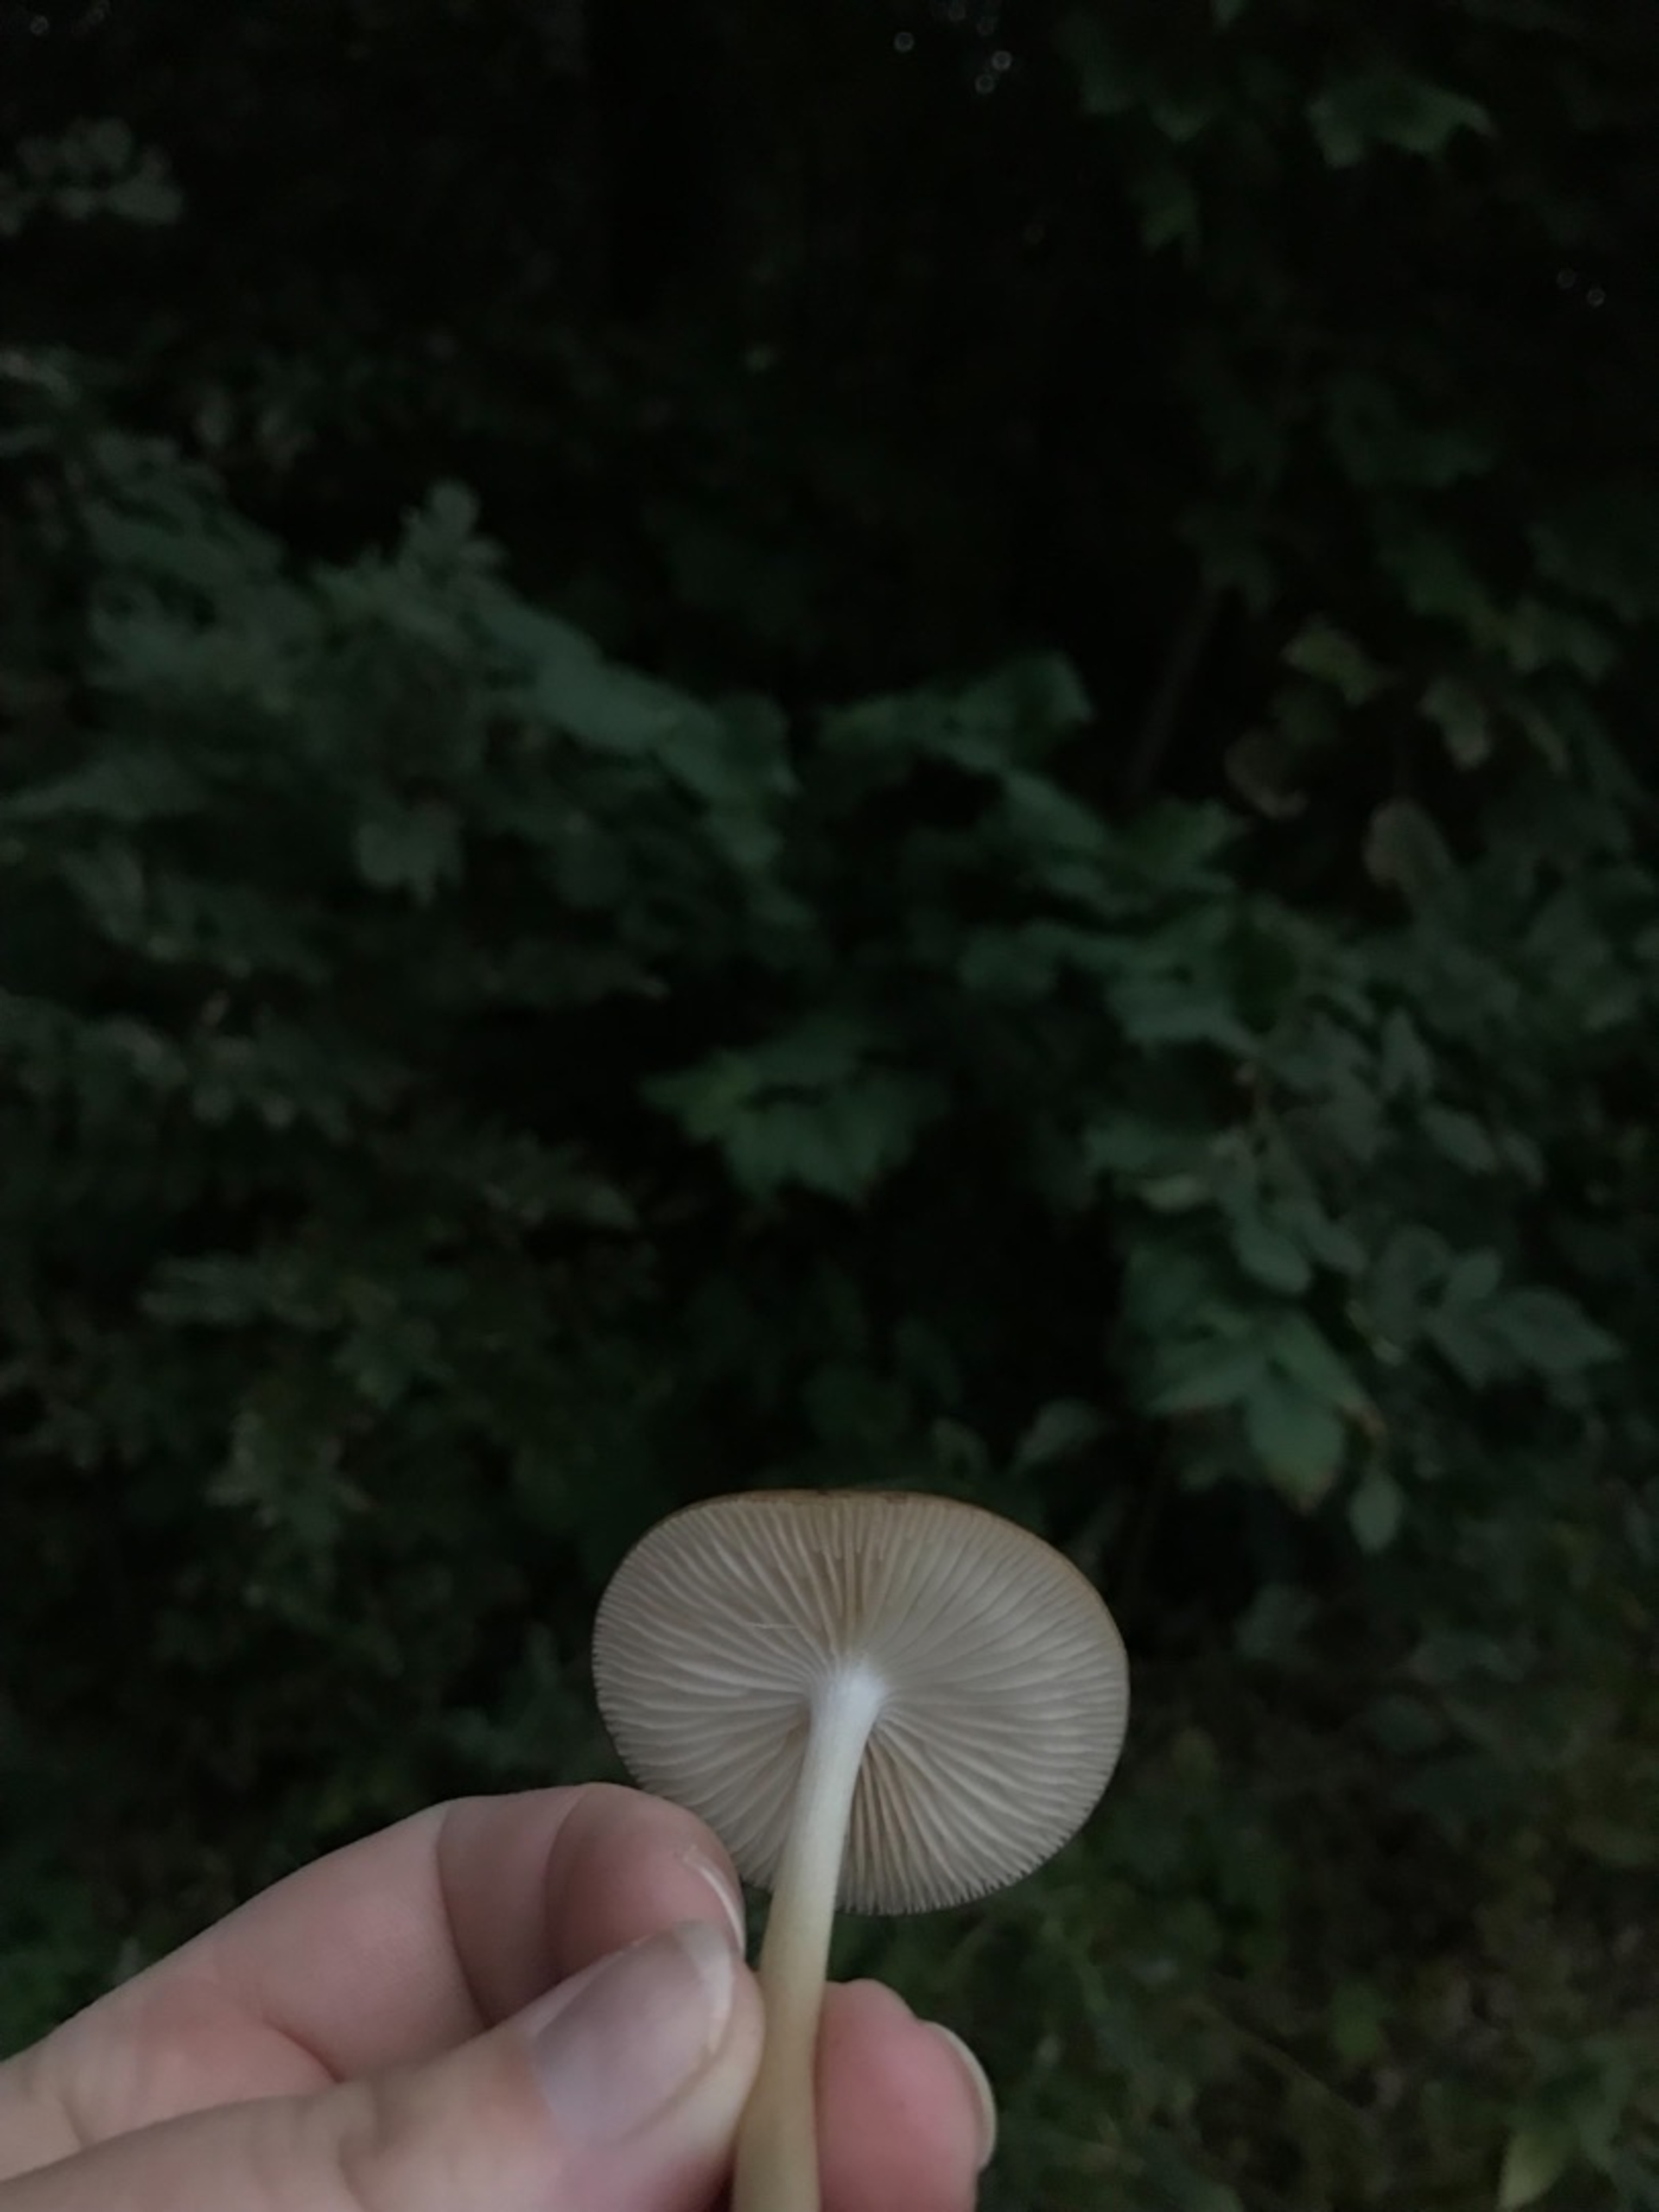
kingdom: Fungi
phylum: Basidiomycota
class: Agaricomycetes
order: Agaricales
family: Physalacriaceae
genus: Hymenopellis
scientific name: Hymenopellis radicata
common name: Almindelig pælerodshat
